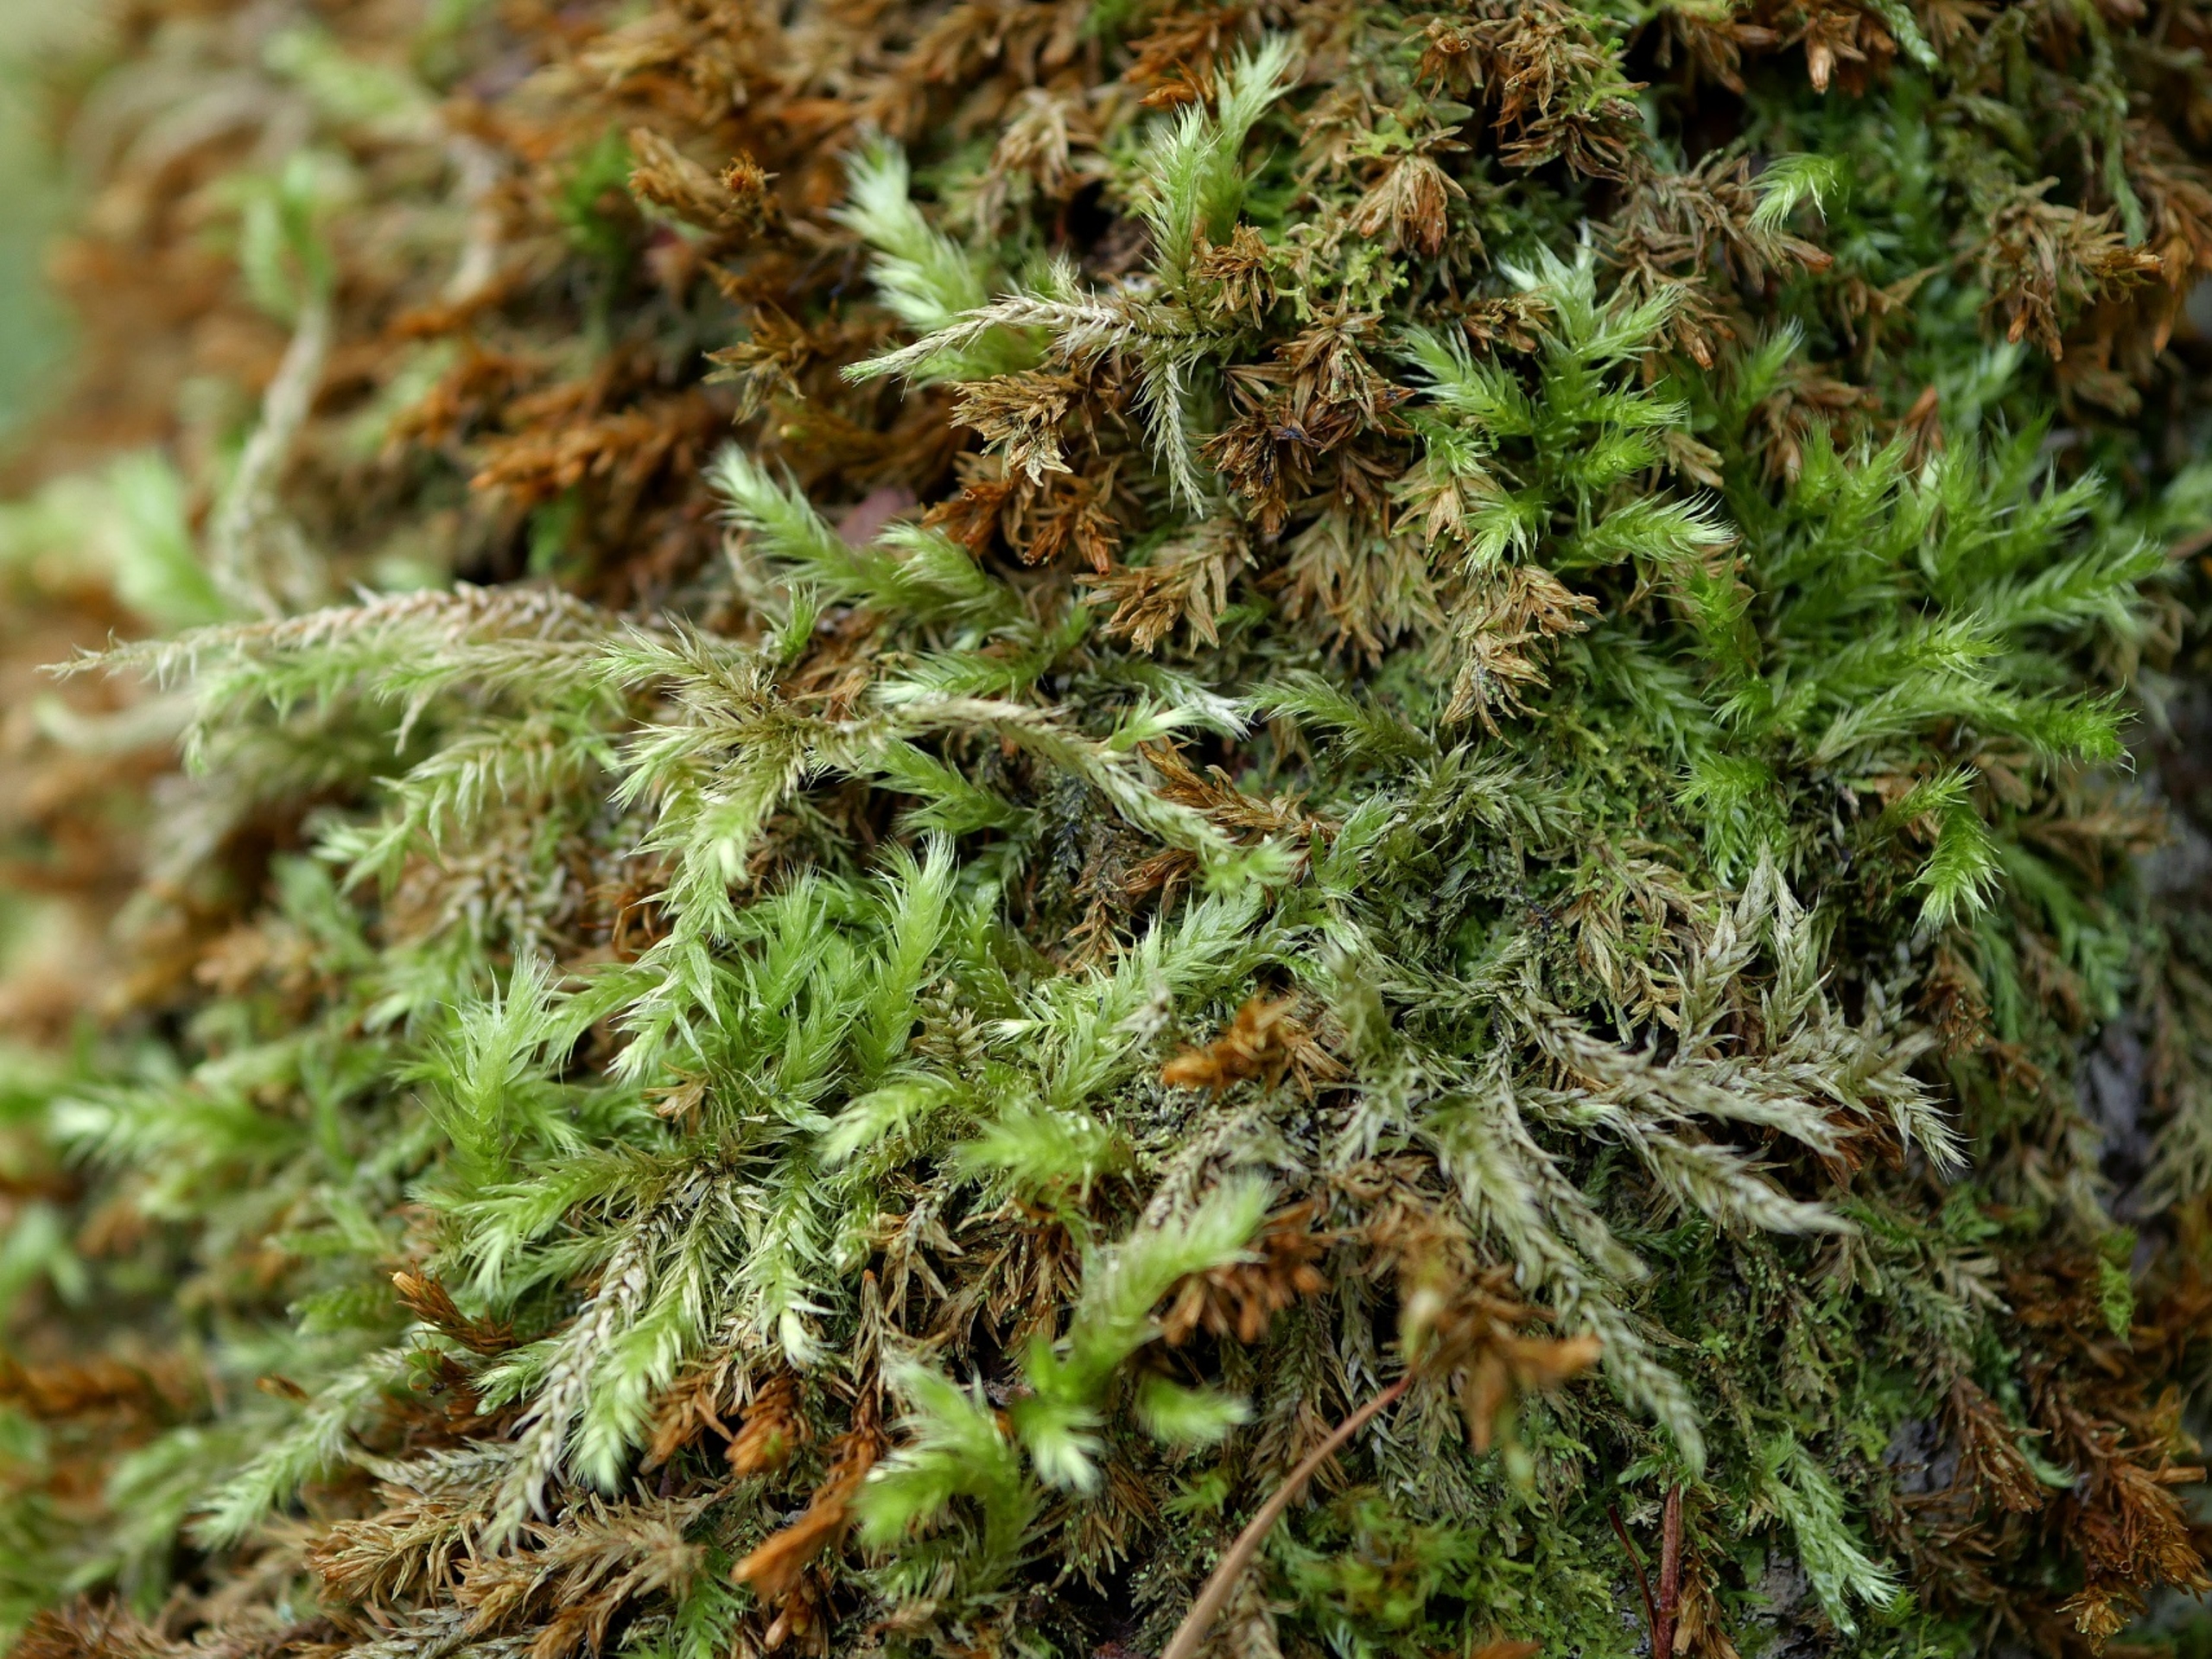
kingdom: Plantae
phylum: Bryophyta
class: Bryopsida
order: Hypnales
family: Brachytheciaceae
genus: Brachythecium
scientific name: Brachythecium salebrosum
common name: Skov-kortkapsel
